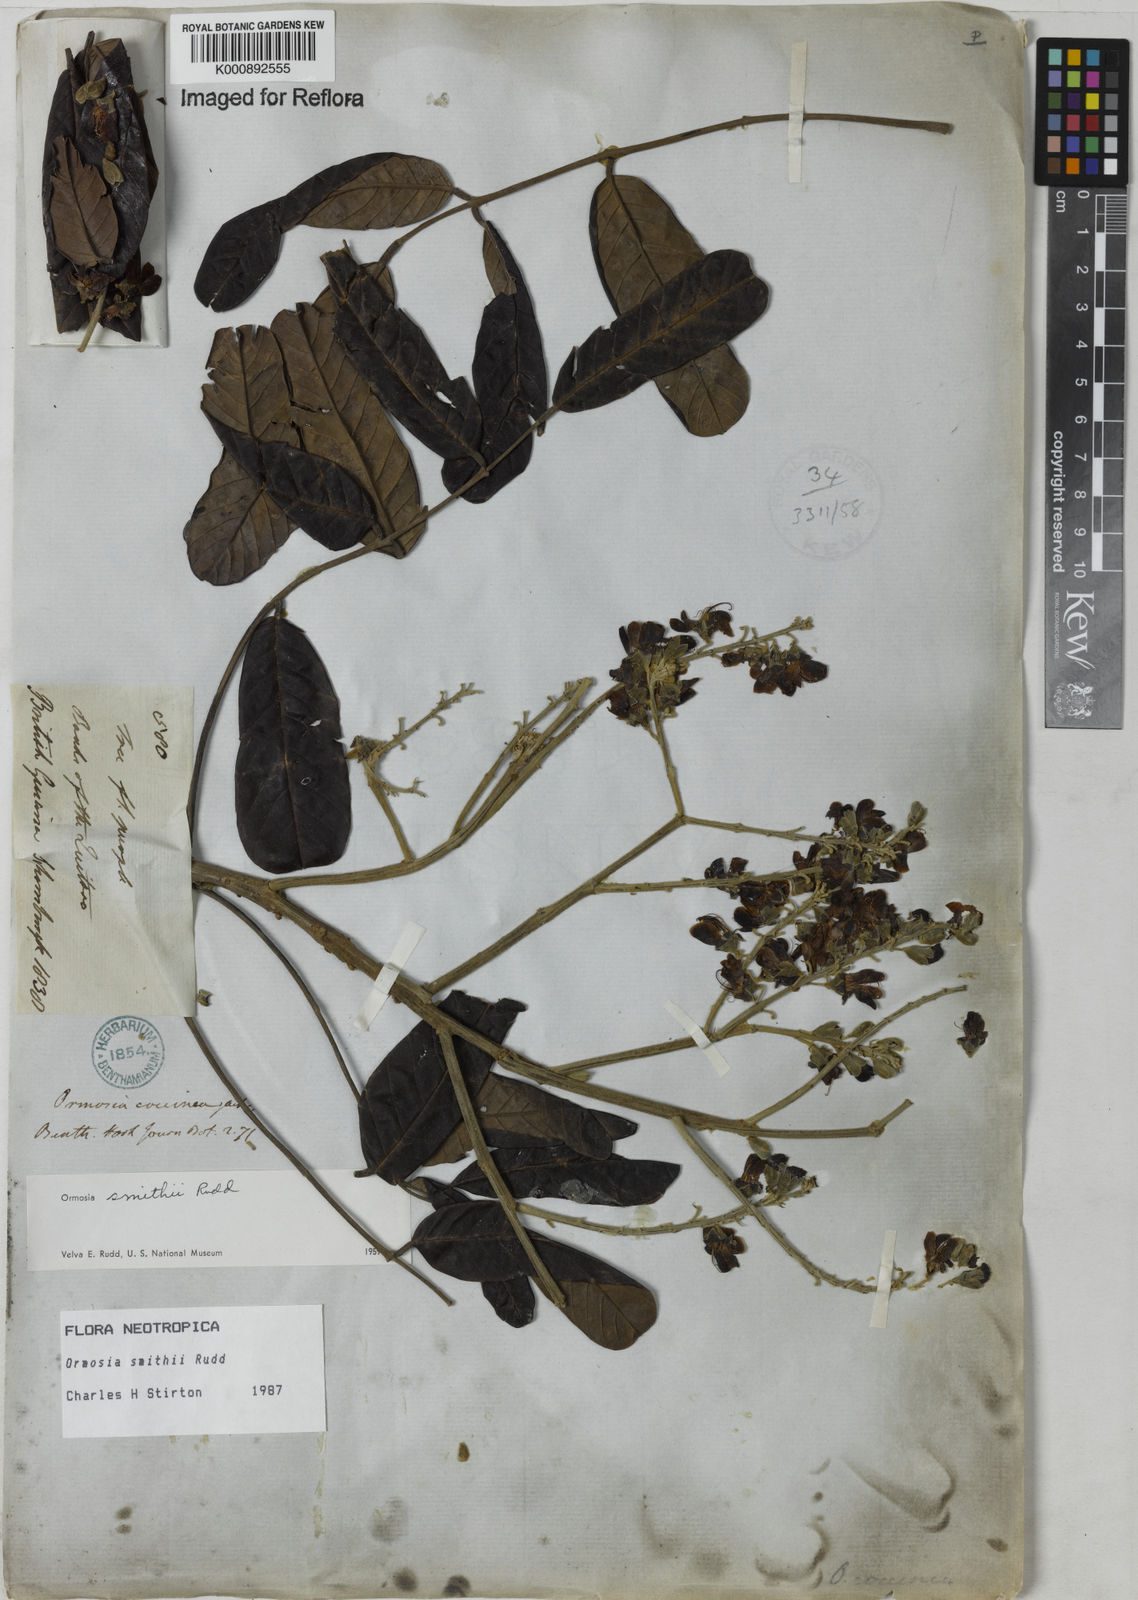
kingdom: Plantae
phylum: Tracheophyta
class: Magnoliopsida
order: Fabales
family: Fabaceae
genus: Ormosia
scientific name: Ormosia smithii
